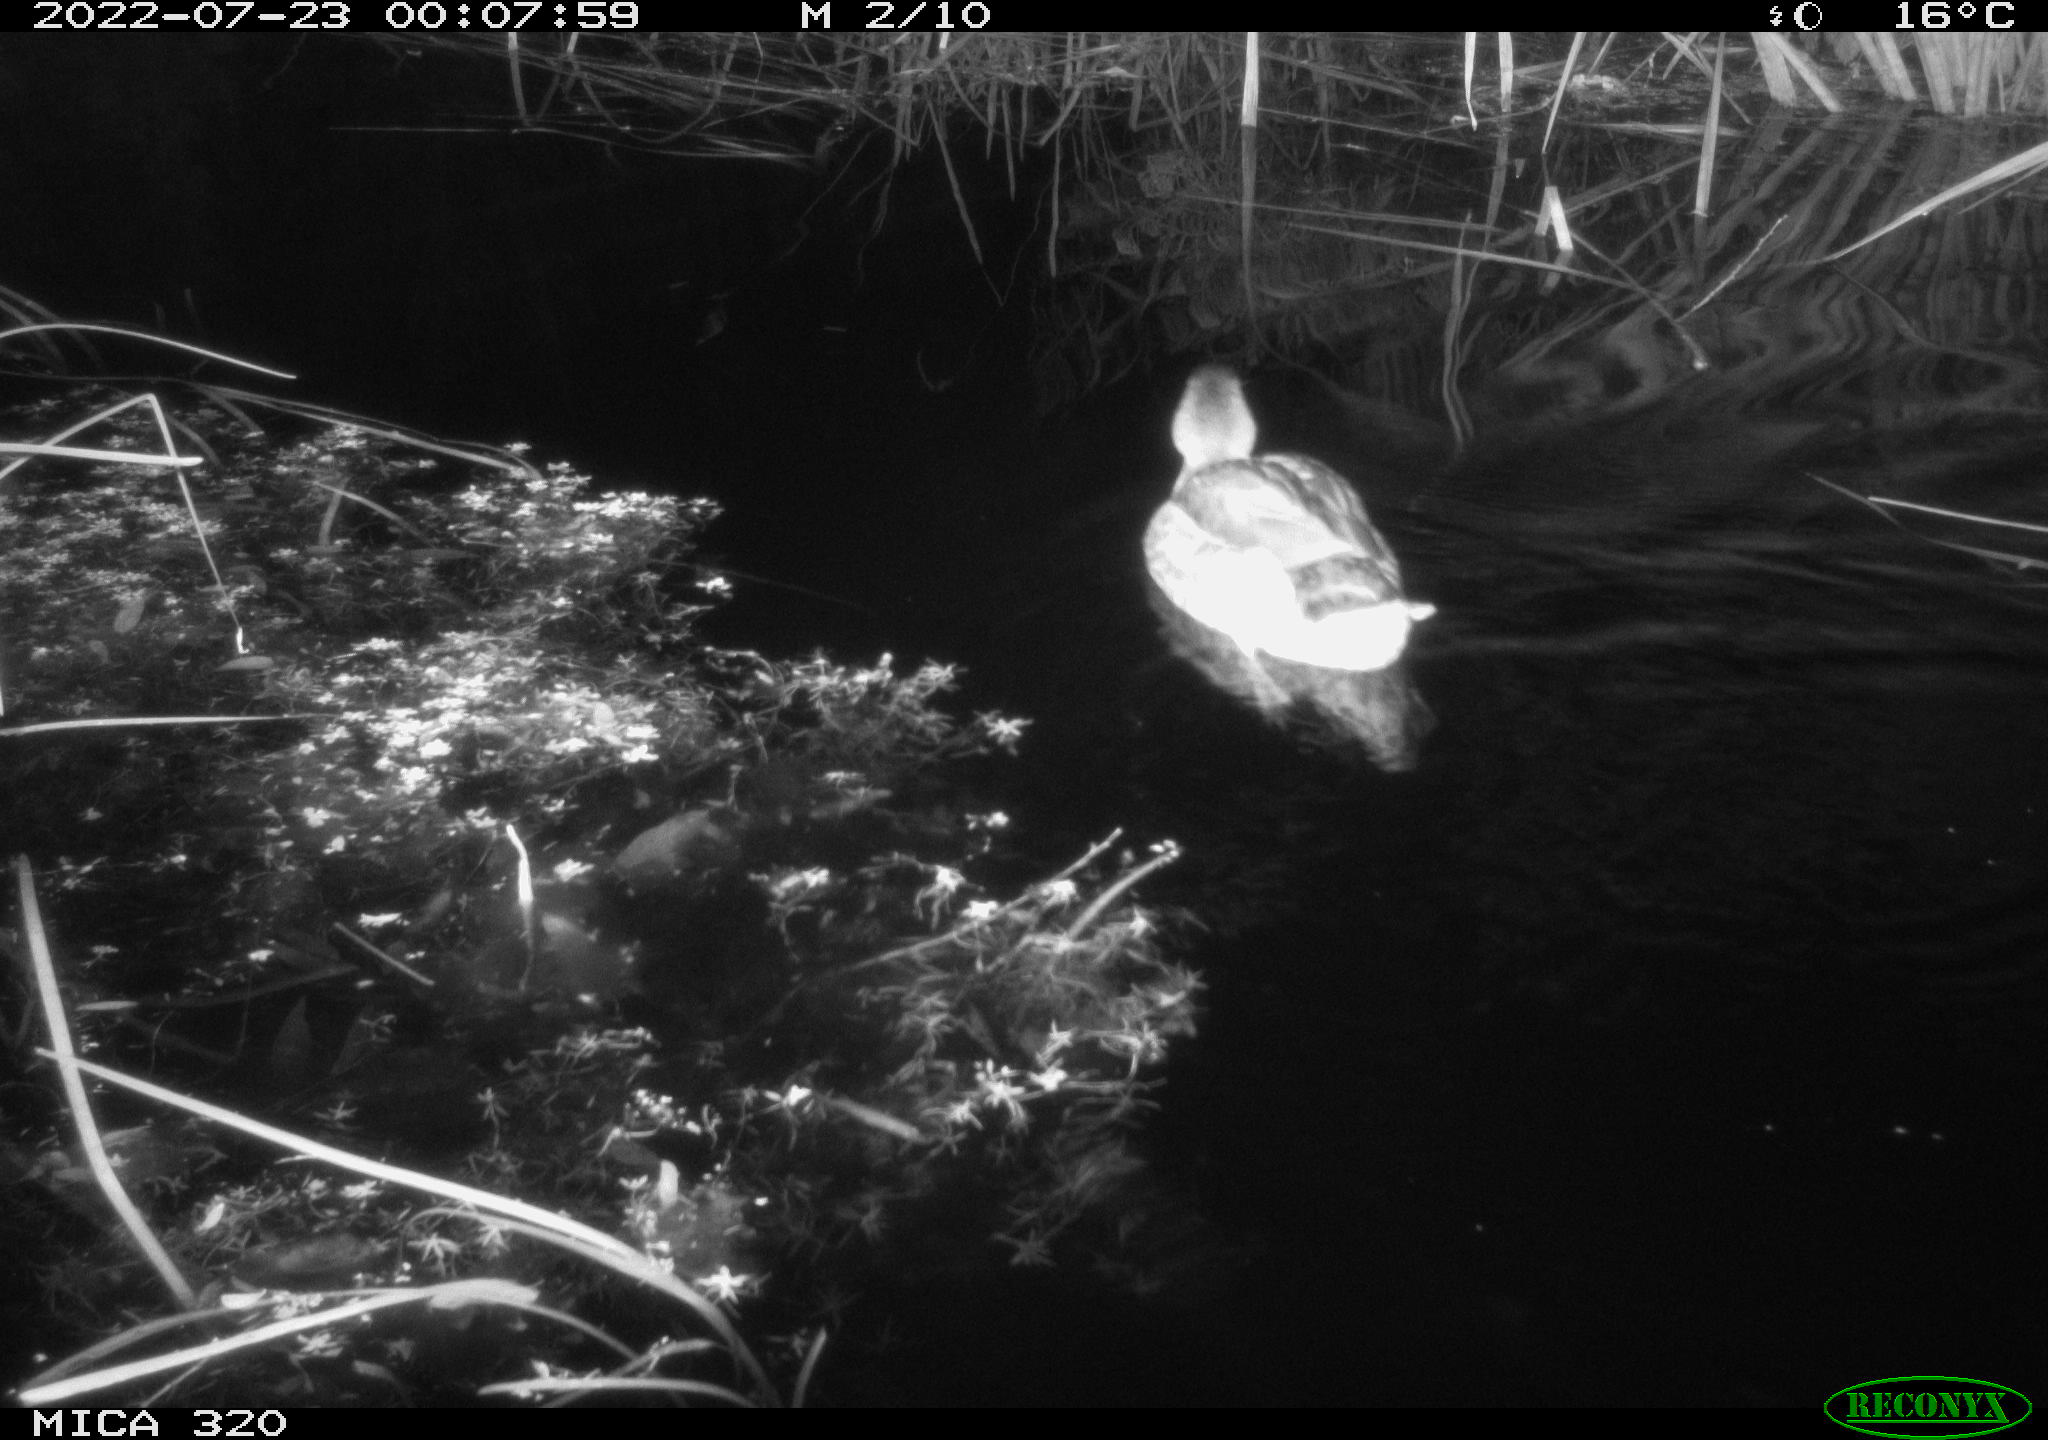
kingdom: Animalia
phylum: Chordata
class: Aves
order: Anseriformes
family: Anatidae
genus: Anas
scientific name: Anas platyrhynchos
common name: Mallard
